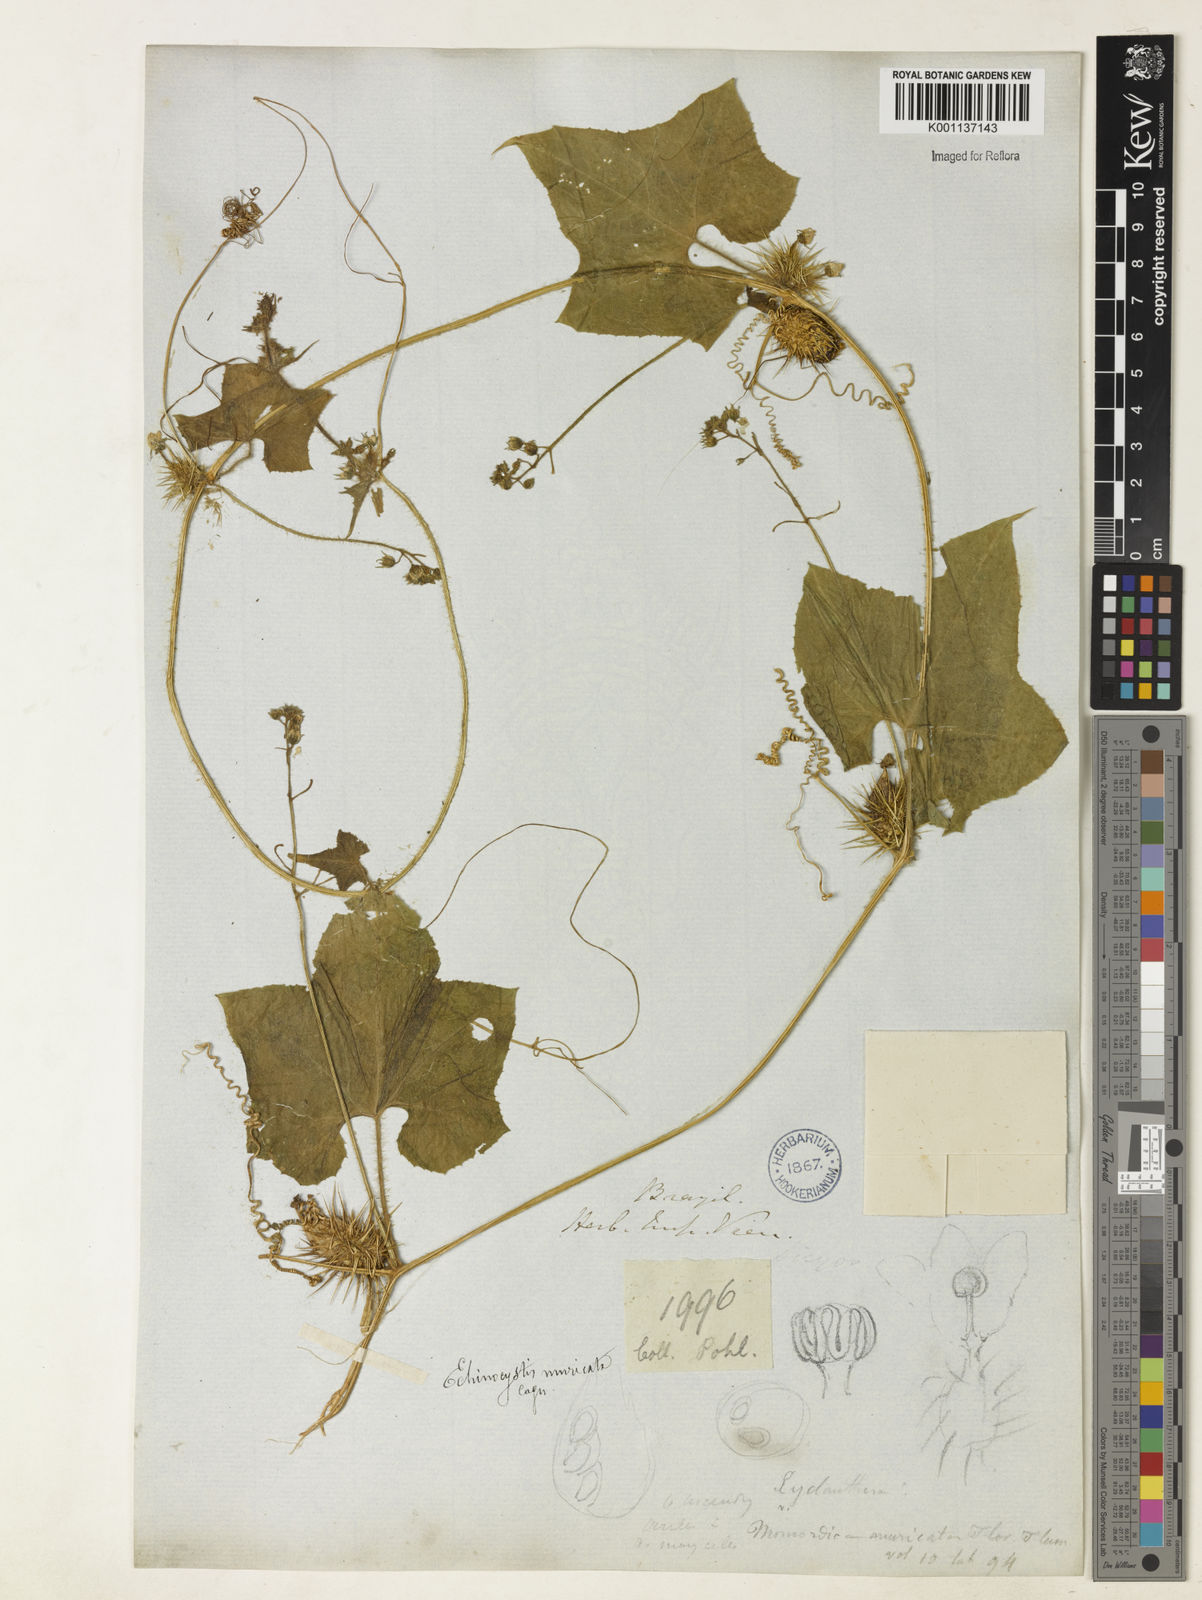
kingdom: Plantae
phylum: Tracheophyta
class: Magnoliopsida
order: Cucurbitales
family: Cucurbitaceae
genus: Echinopepon
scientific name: Echinopepon racemosus
